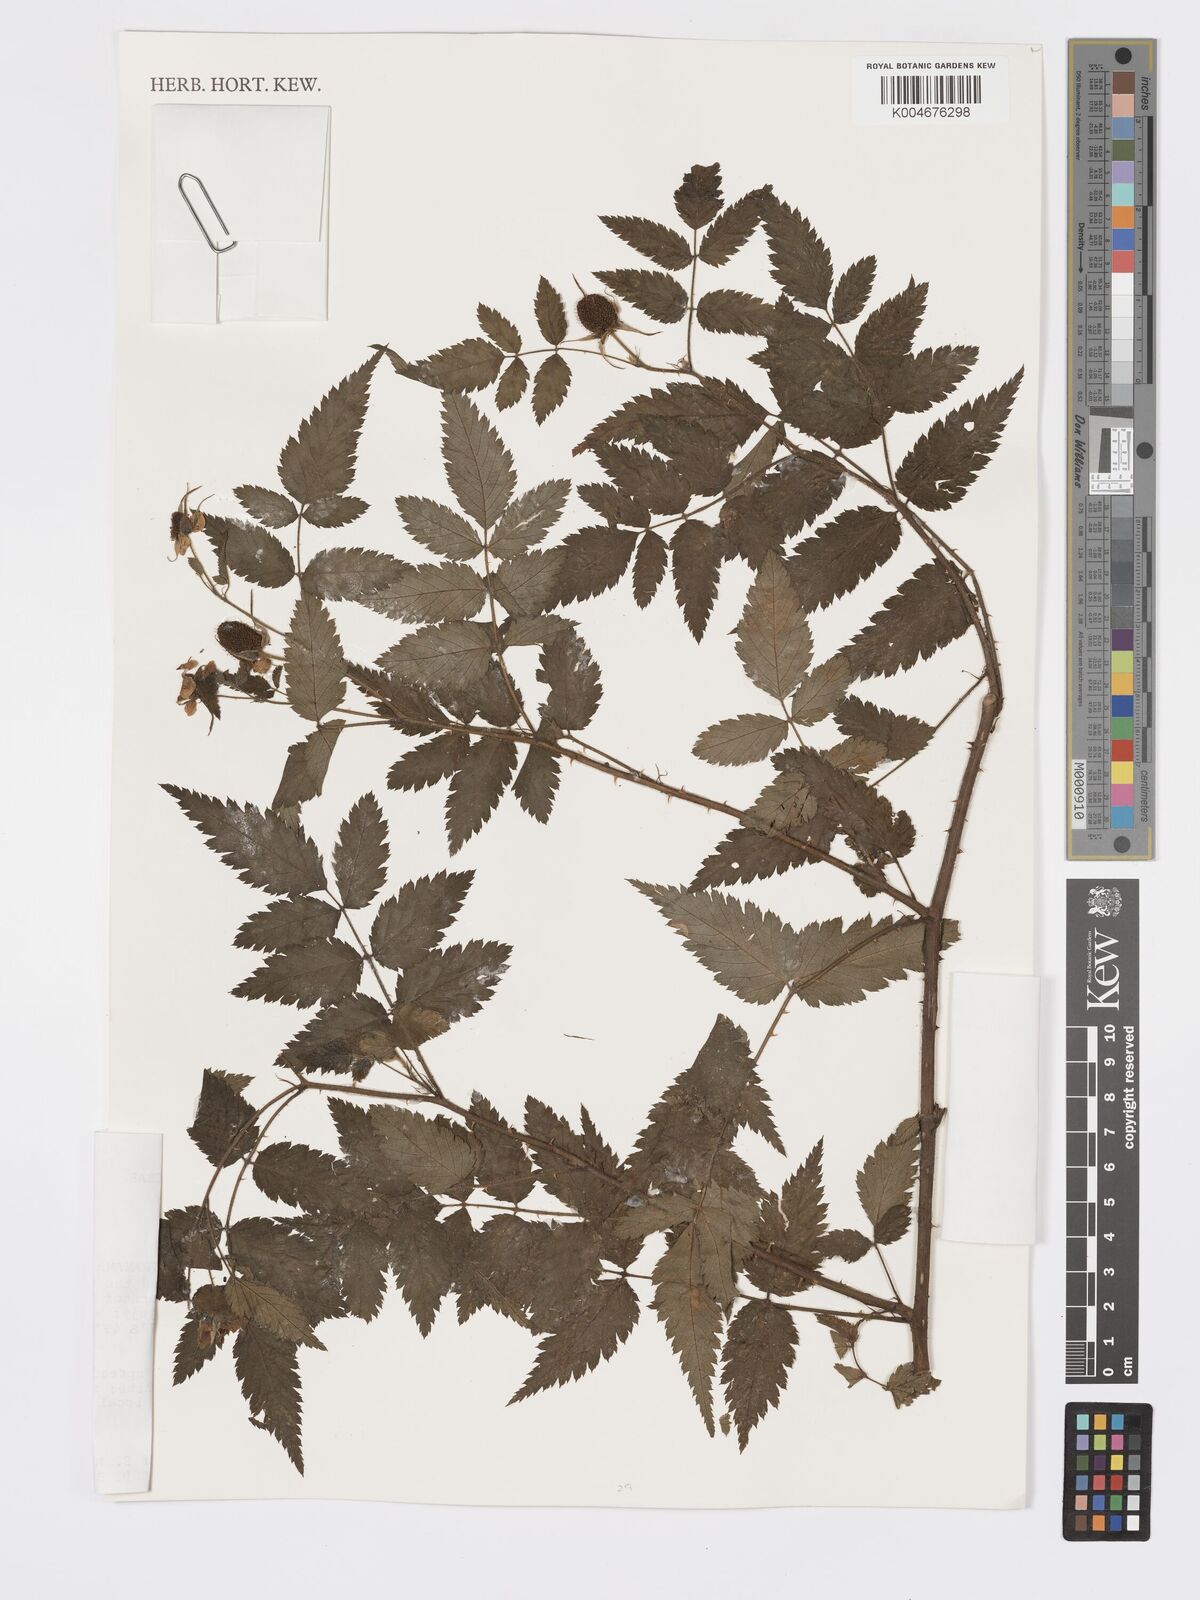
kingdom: Plantae
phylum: Tracheophyta
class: Magnoliopsida
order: Rosales
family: Rosaceae
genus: Rubus
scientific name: Rubus
